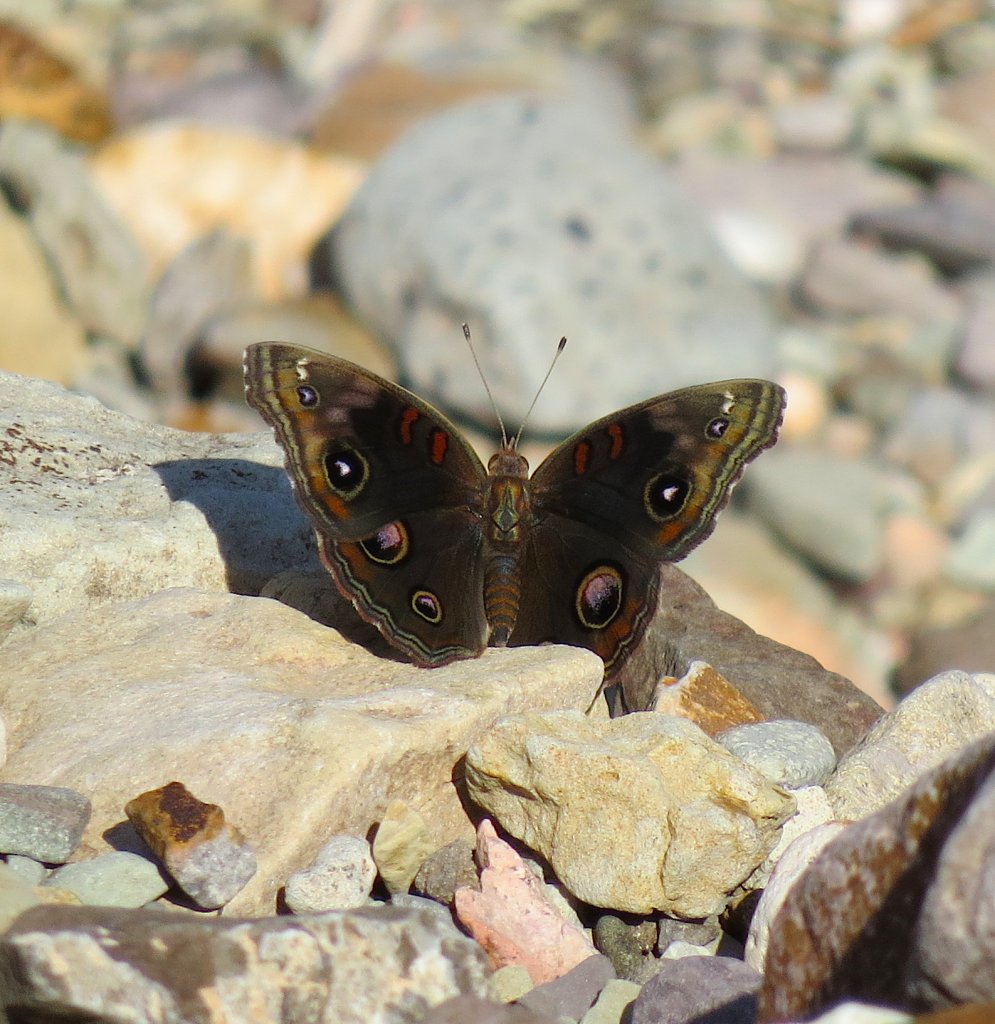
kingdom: Animalia
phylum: Arthropoda
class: Insecta
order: Lepidoptera
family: Nymphalidae
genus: Junonia
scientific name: Junonia coenia
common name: Common Buckeye
